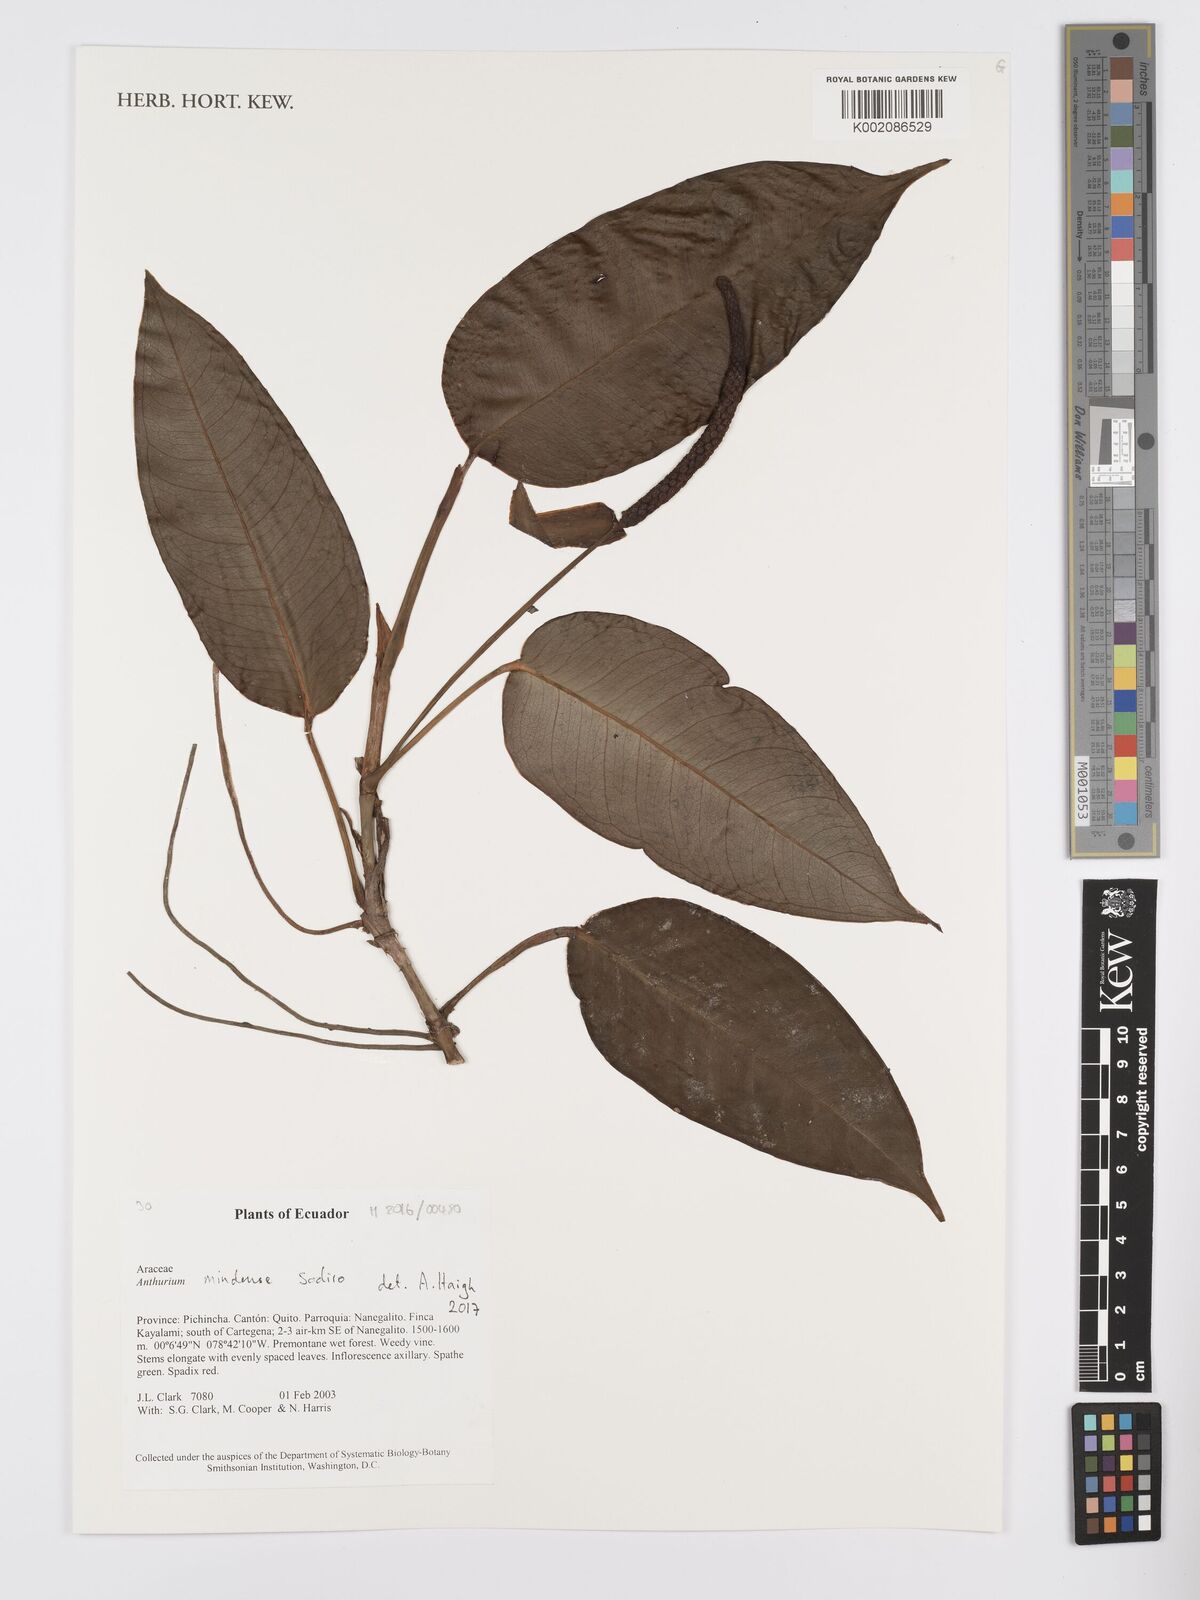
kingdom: Plantae
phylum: Tracheophyta
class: Liliopsida
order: Alismatales
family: Araceae
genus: Anthurium
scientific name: Anthurium mindense
